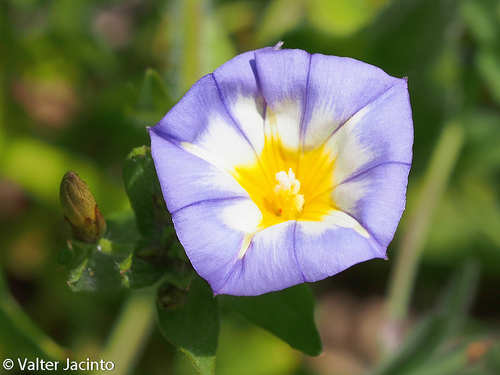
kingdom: Plantae
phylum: Tracheophyta
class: Magnoliopsida
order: Solanales
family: Convolvulaceae
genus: Convolvulus
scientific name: Convolvulus meonanthus
